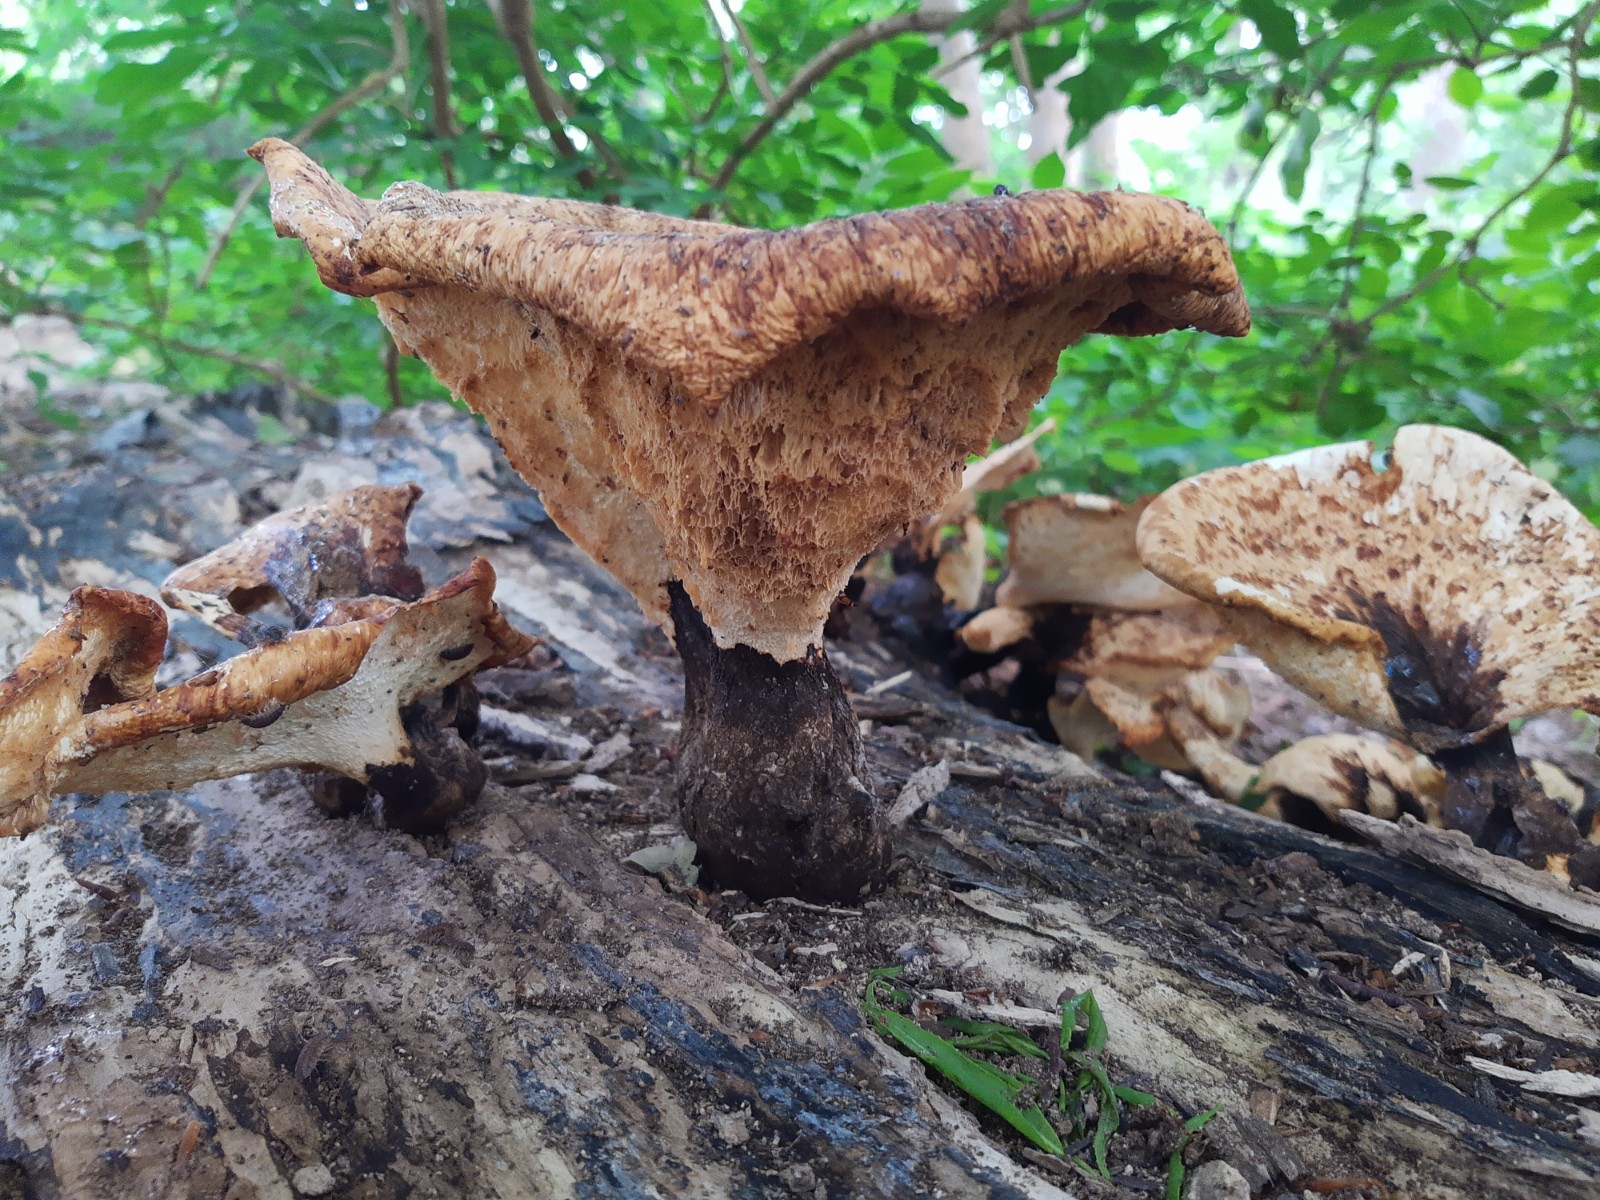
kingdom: Fungi
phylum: Basidiomycota
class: Agaricomycetes
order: Polyporales
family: Polyporaceae
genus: Cerioporus
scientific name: Cerioporus squamosus
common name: skællet stilkporesvamp
